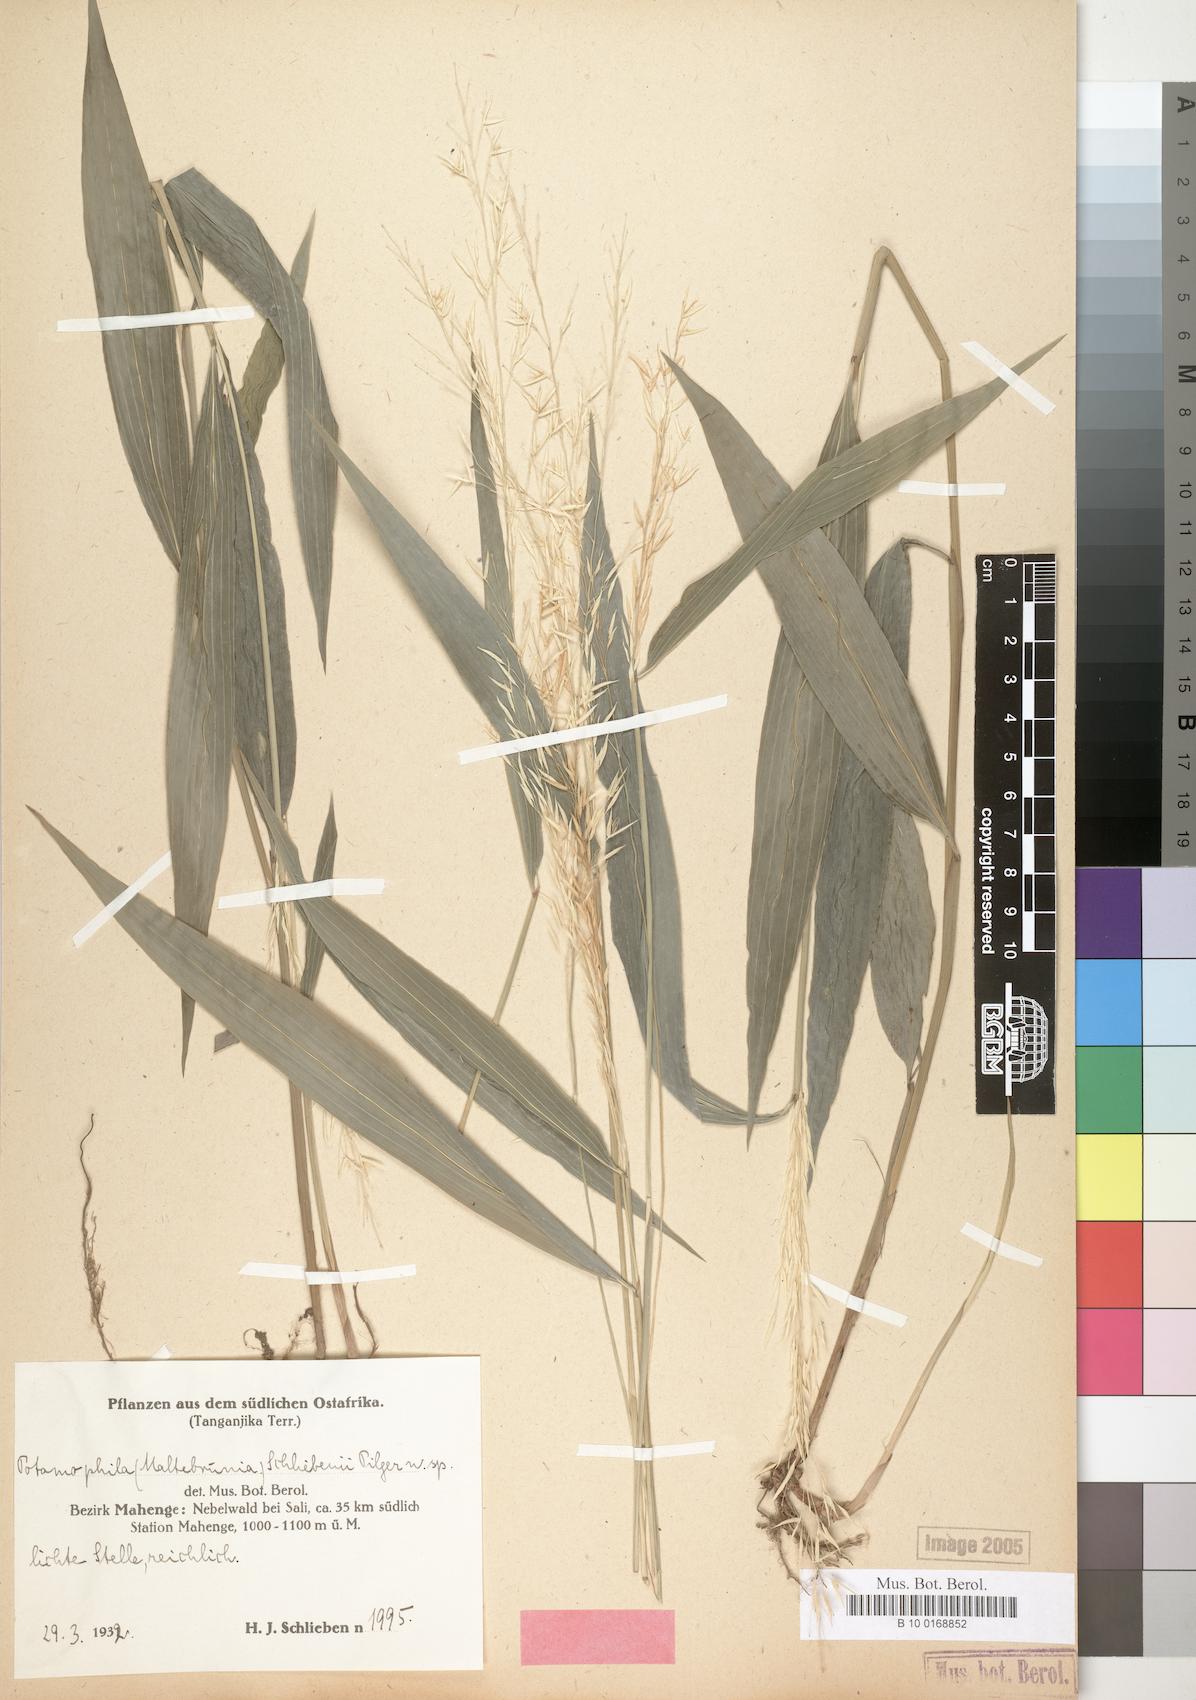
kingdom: Plantae
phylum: Tracheophyta
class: Liliopsida
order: Poales
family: Poaceae
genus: Maltebrunia
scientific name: Maltebrunia schliebenii
